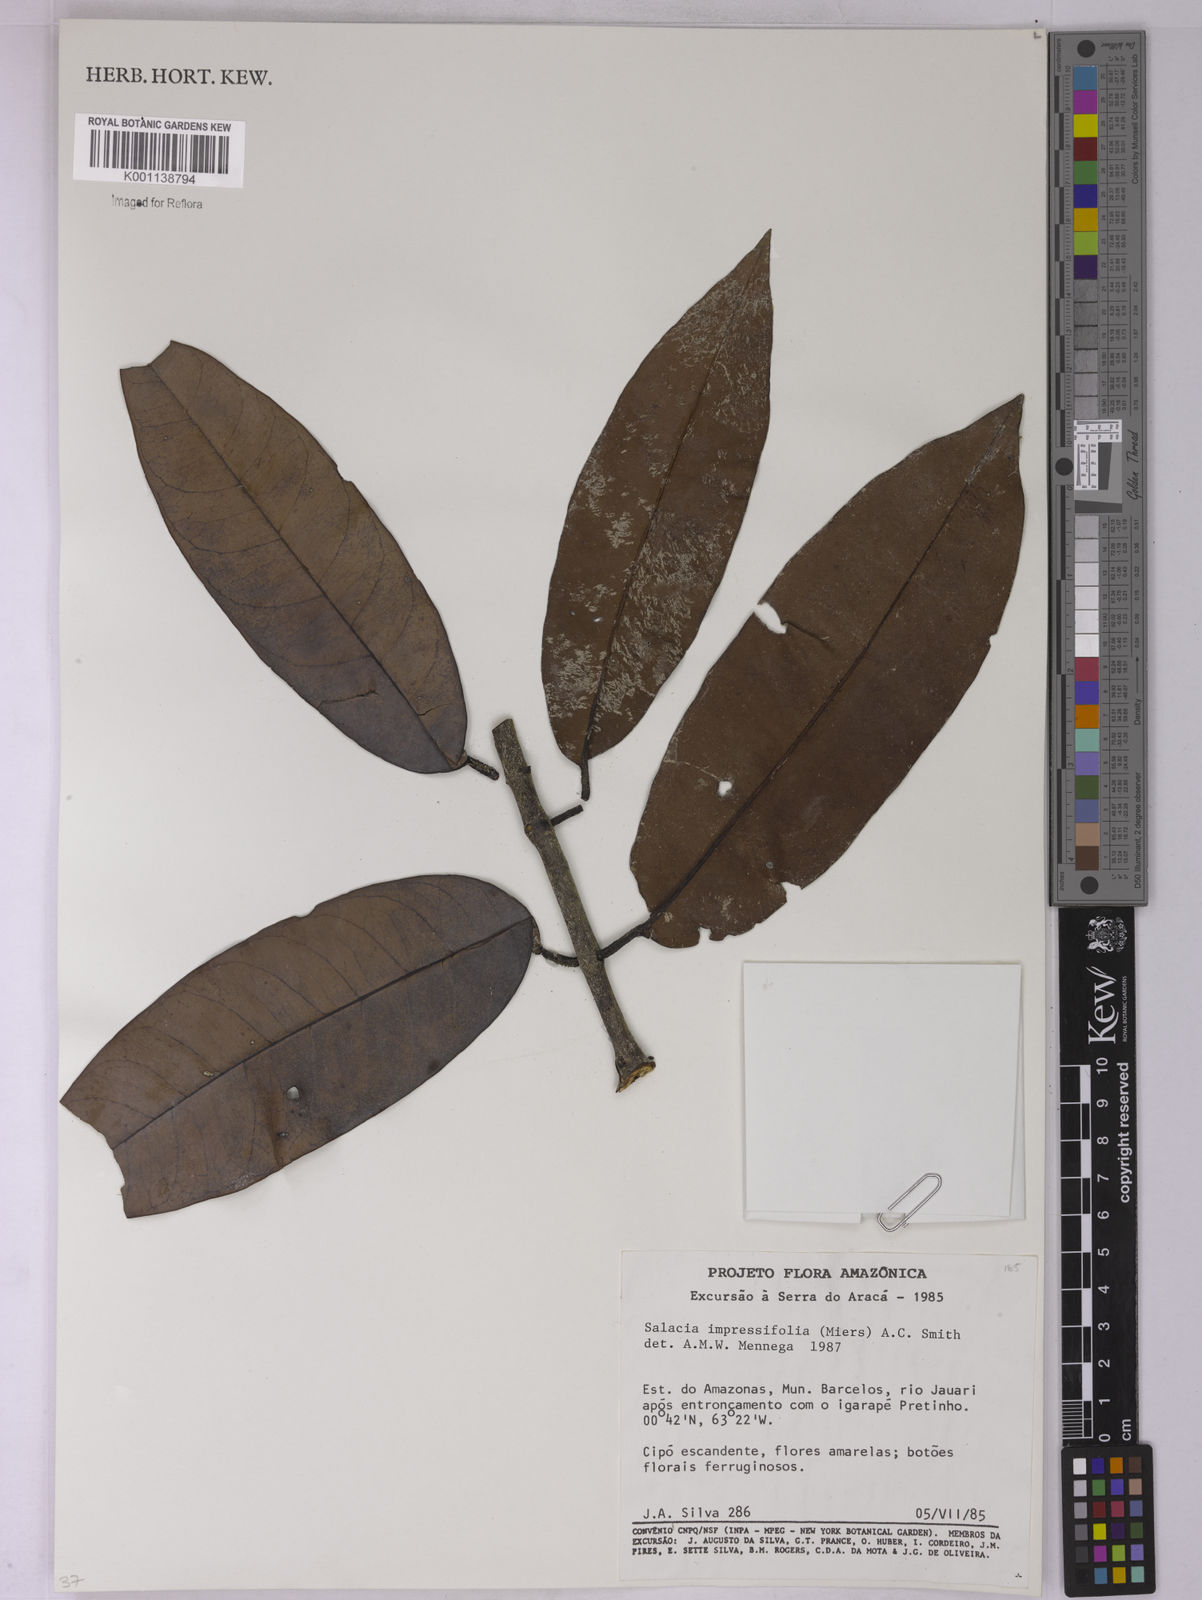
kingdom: Plantae
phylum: Tracheophyta
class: Magnoliopsida
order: Celastrales
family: Celastraceae
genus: Salacia
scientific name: Salacia impressifolia
